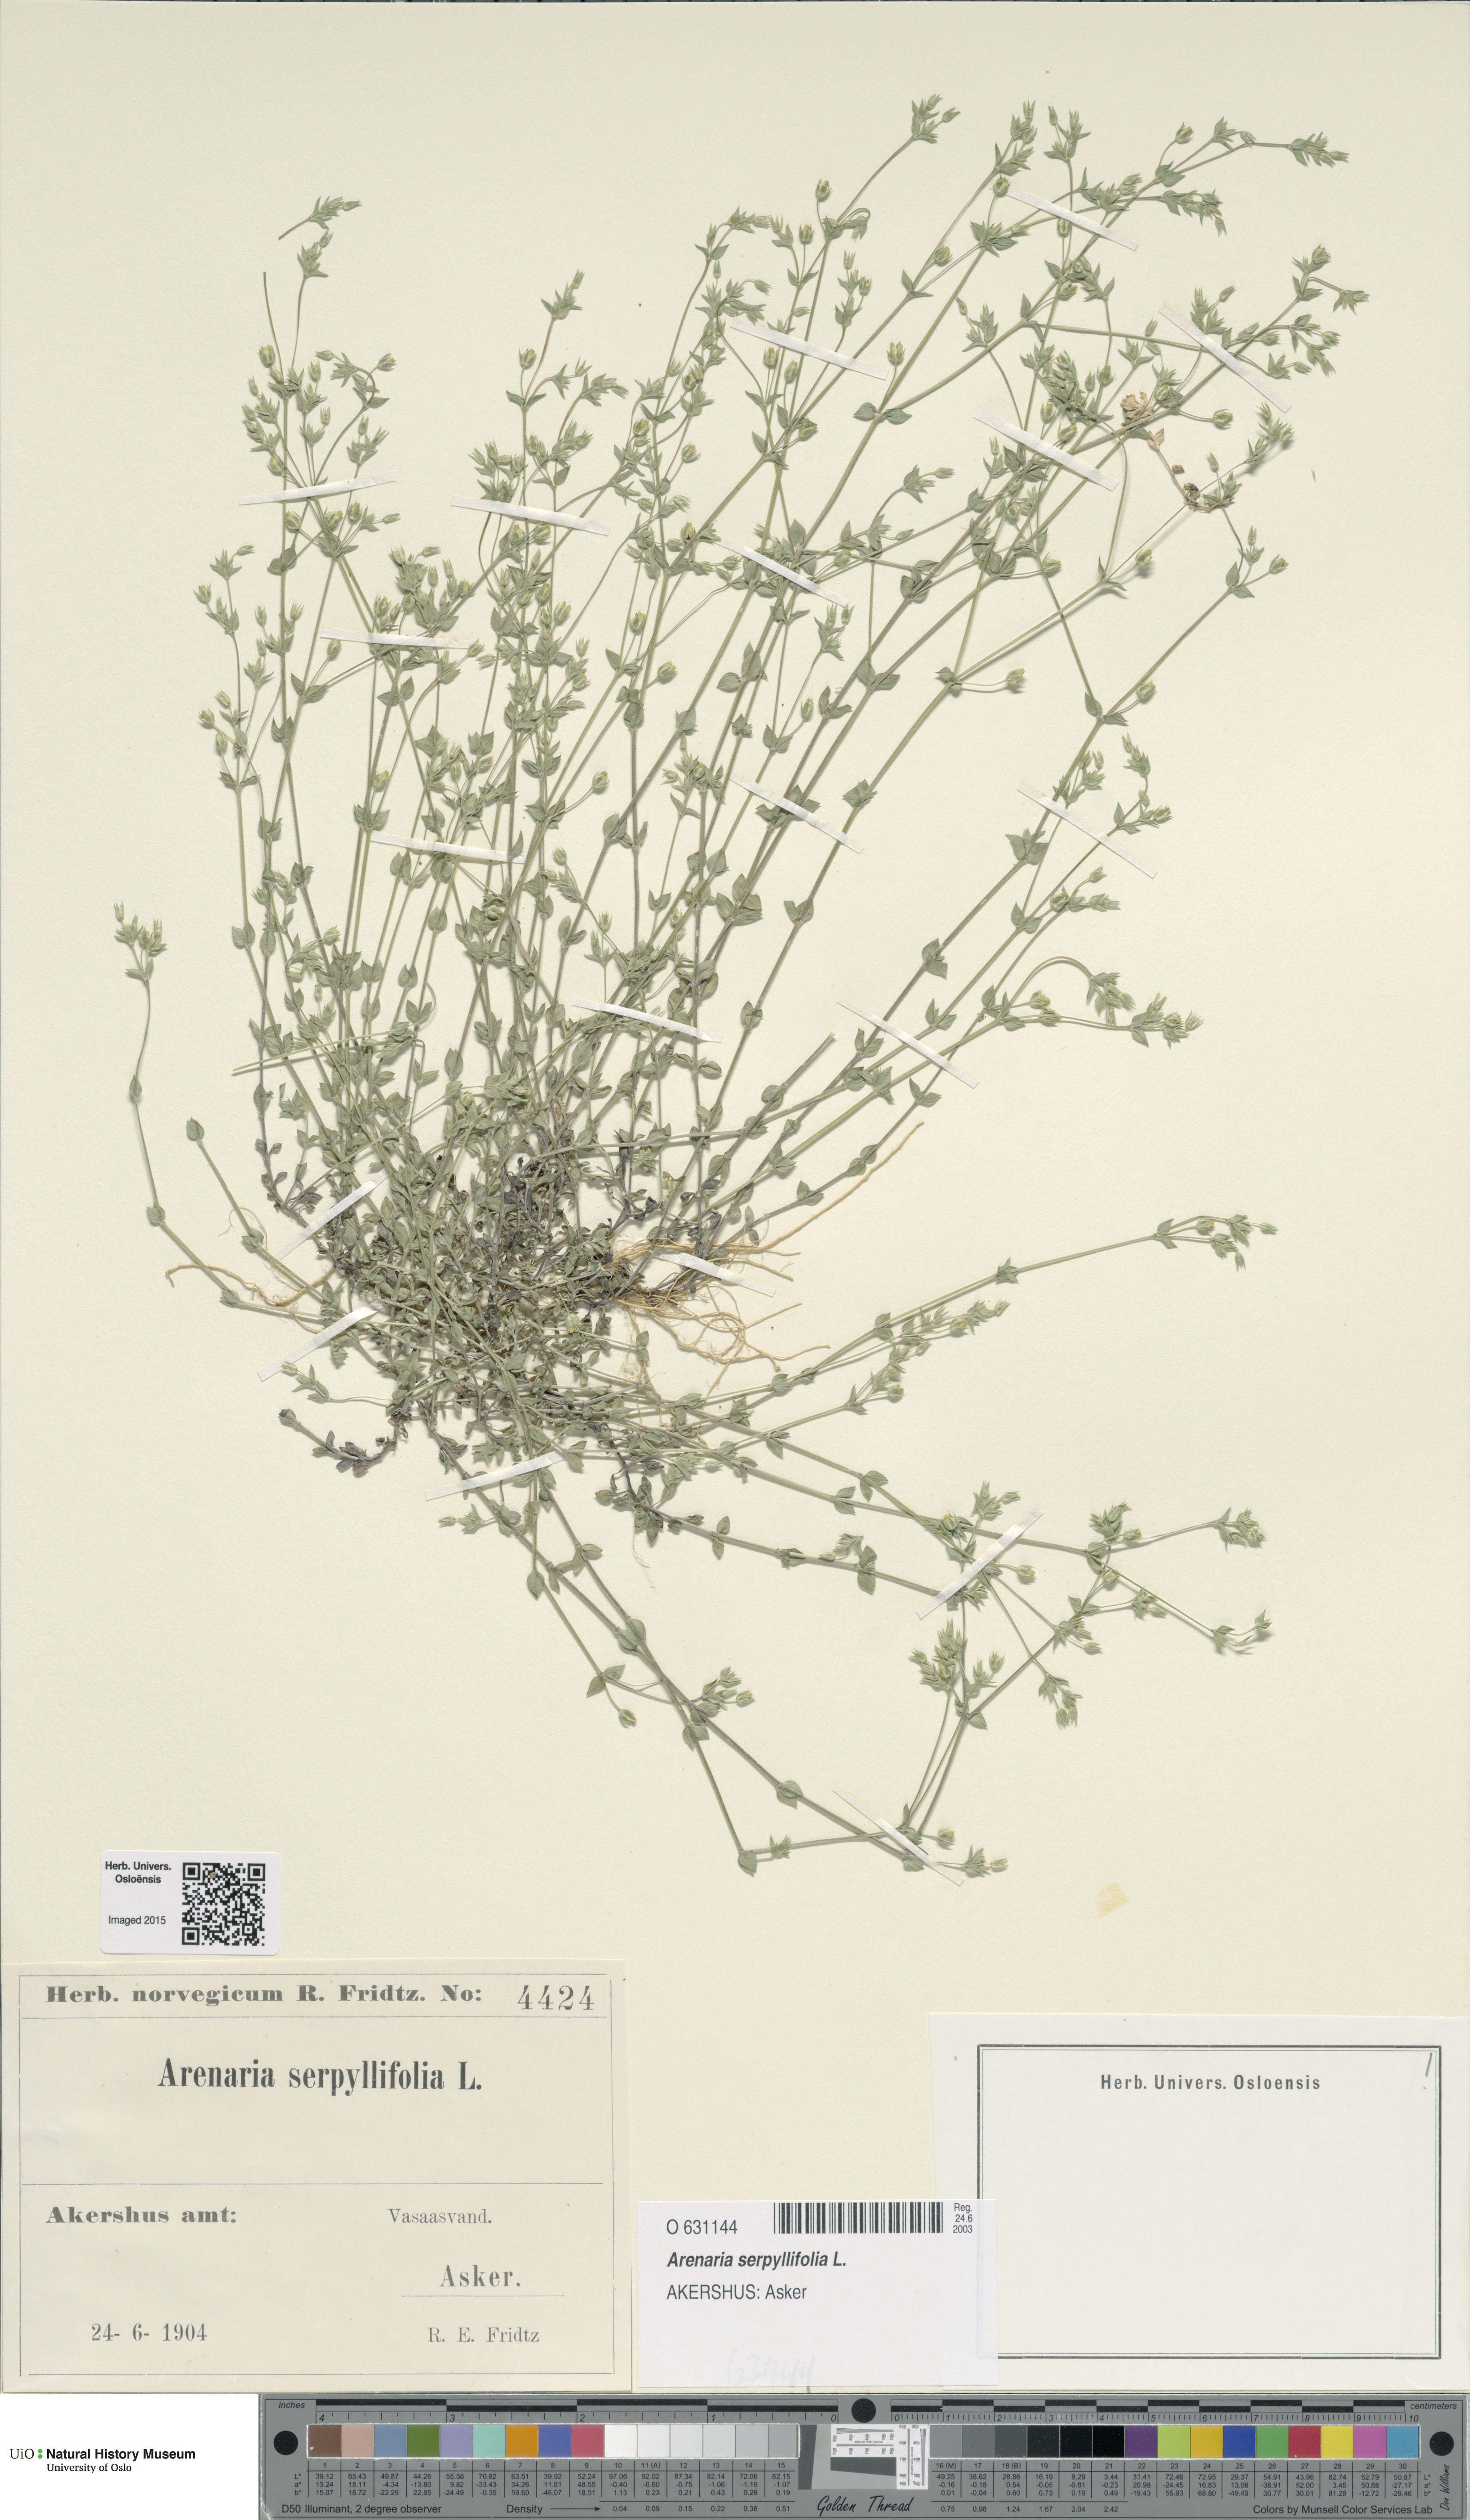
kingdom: Plantae
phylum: Tracheophyta
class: Magnoliopsida
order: Caryophyllales
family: Caryophyllaceae
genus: Arenaria
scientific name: Arenaria serpyllifolia
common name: Thyme-leaved sandwort
